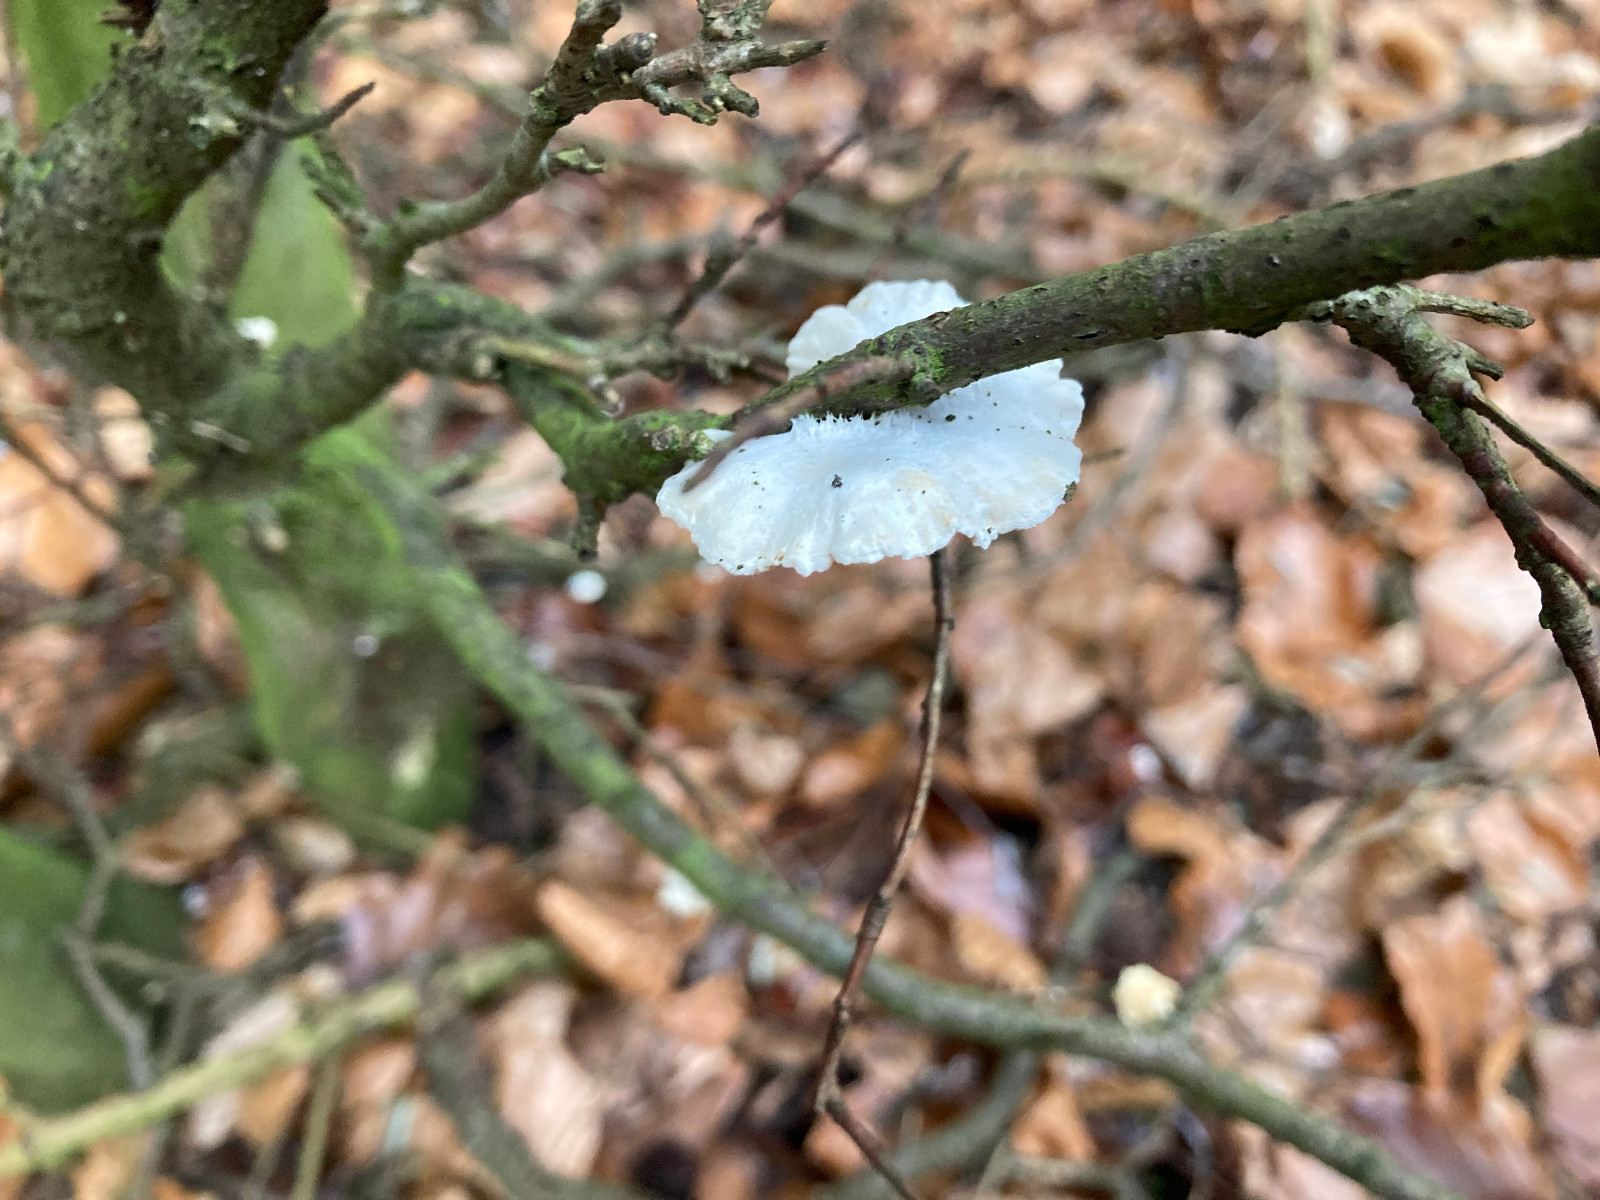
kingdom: Fungi
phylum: Basidiomycota
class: Agaricomycetes
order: Agaricales
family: Crepidotaceae
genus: Crepidotus
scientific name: Crepidotus
